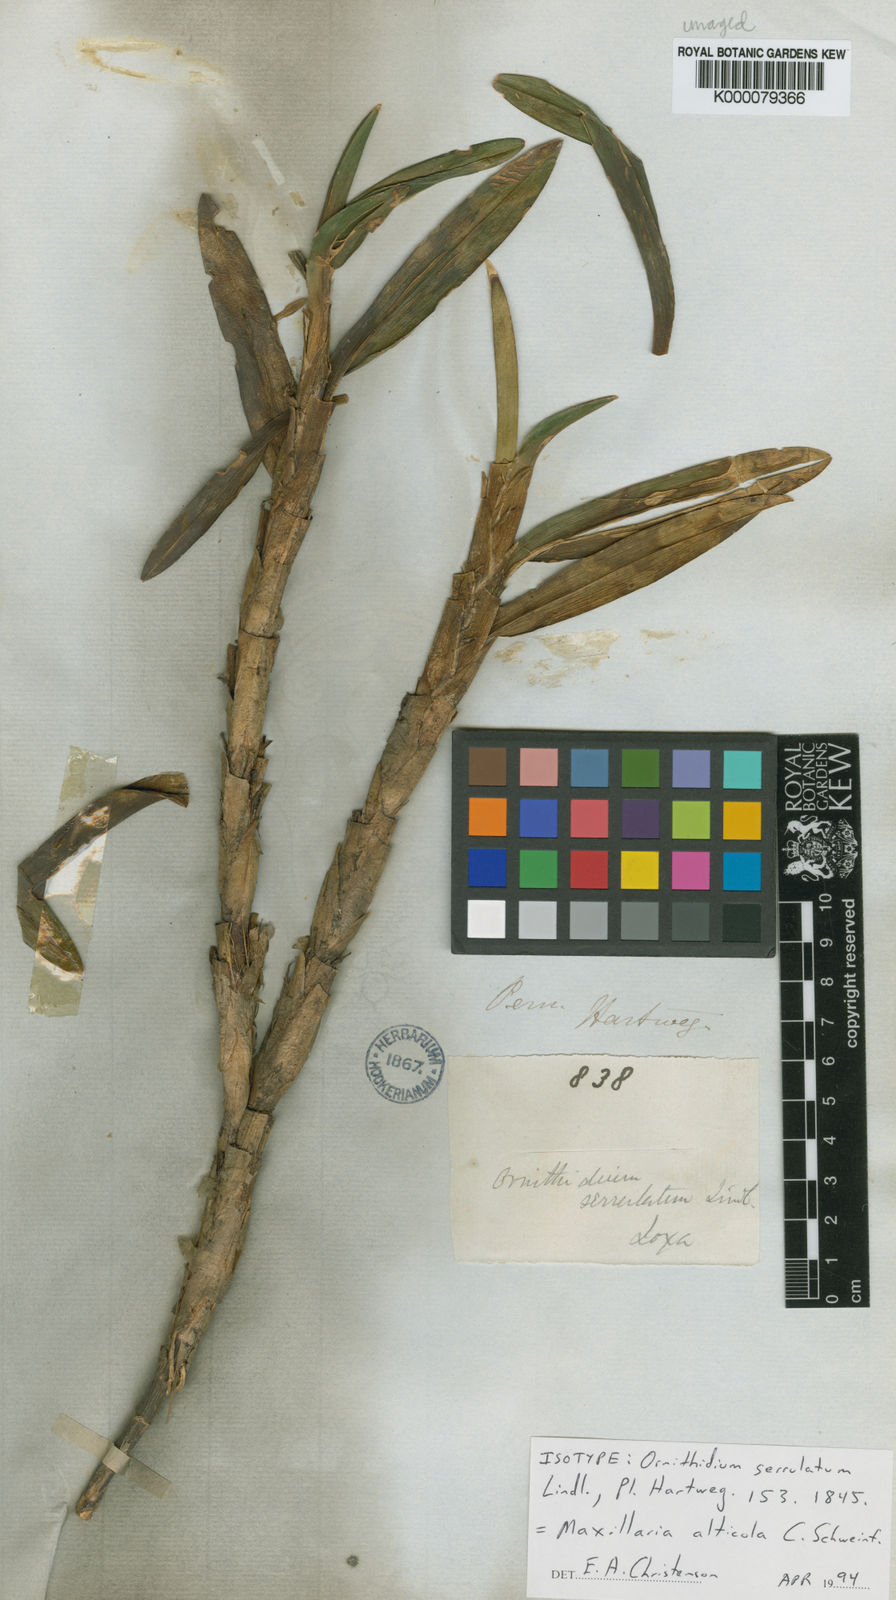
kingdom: Plantae
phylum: Tracheophyta
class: Liliopsida
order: Asparagales
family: Orchidaceae
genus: Maxillaria
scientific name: Maxillaria alticola
